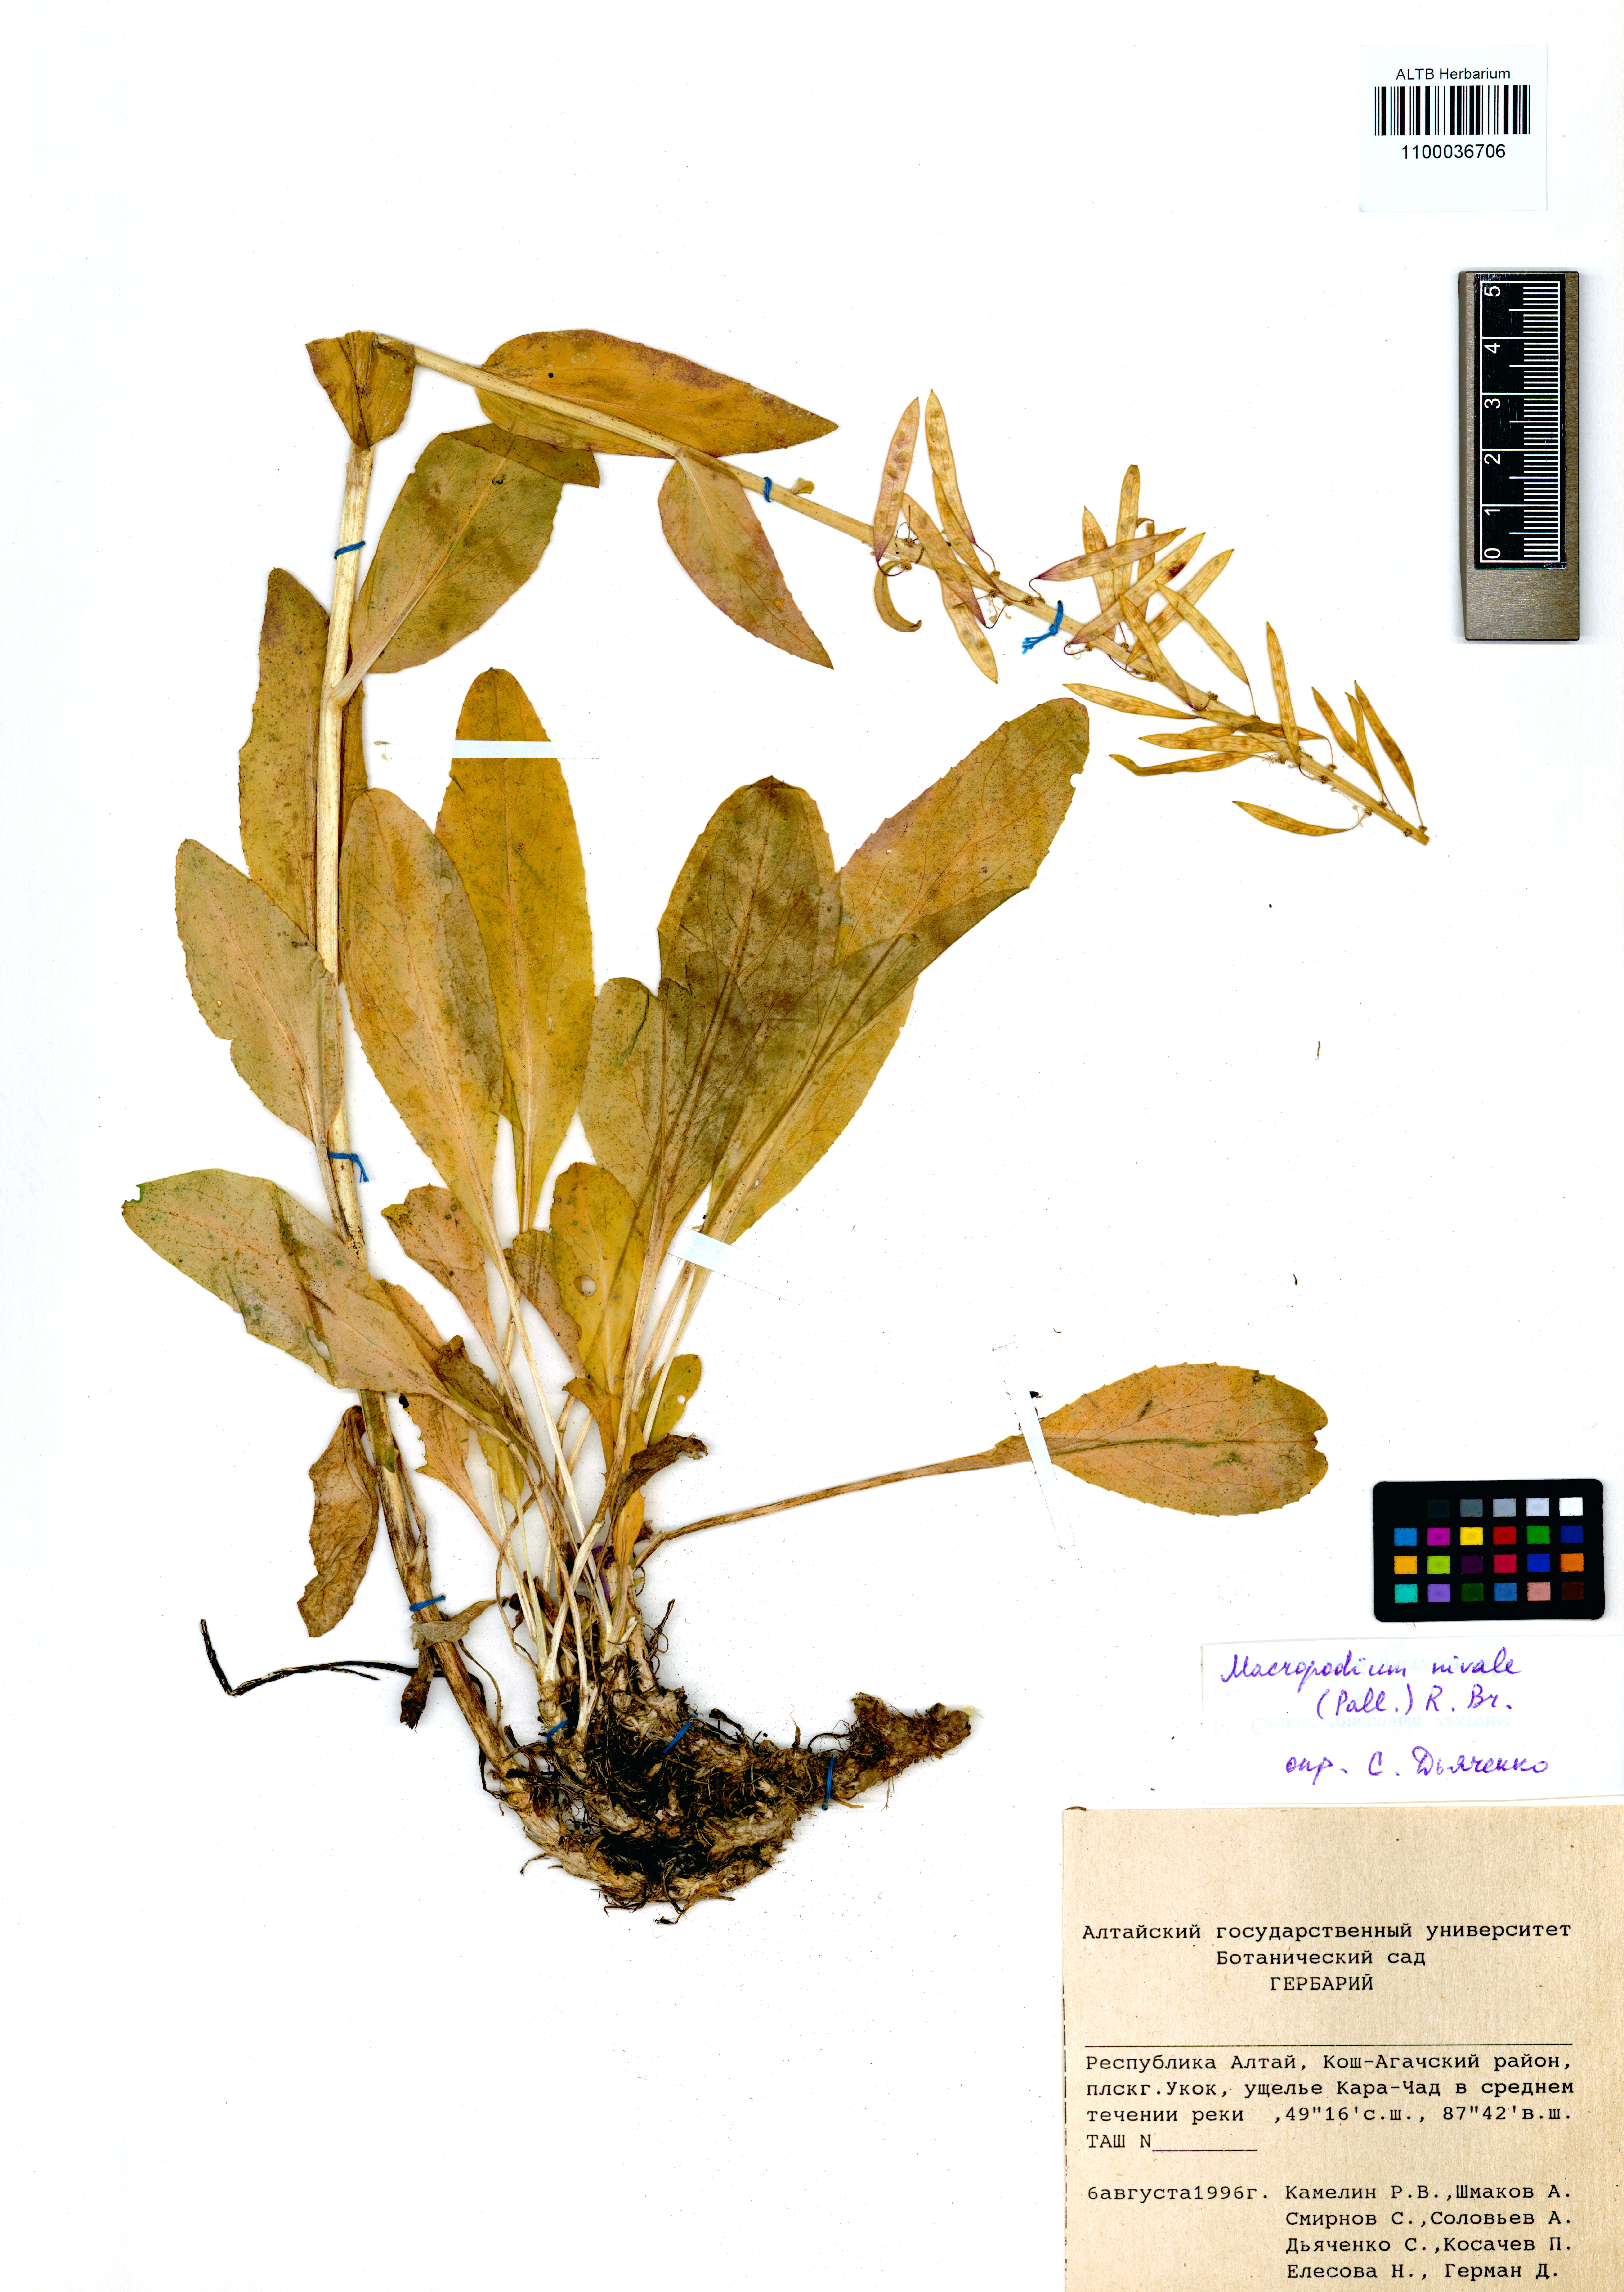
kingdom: Plantae
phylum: Tracheophyta
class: Magnoliopsida
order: Brassicales
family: Brassicaceae
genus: Macropodium
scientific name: Macropodium nivale
